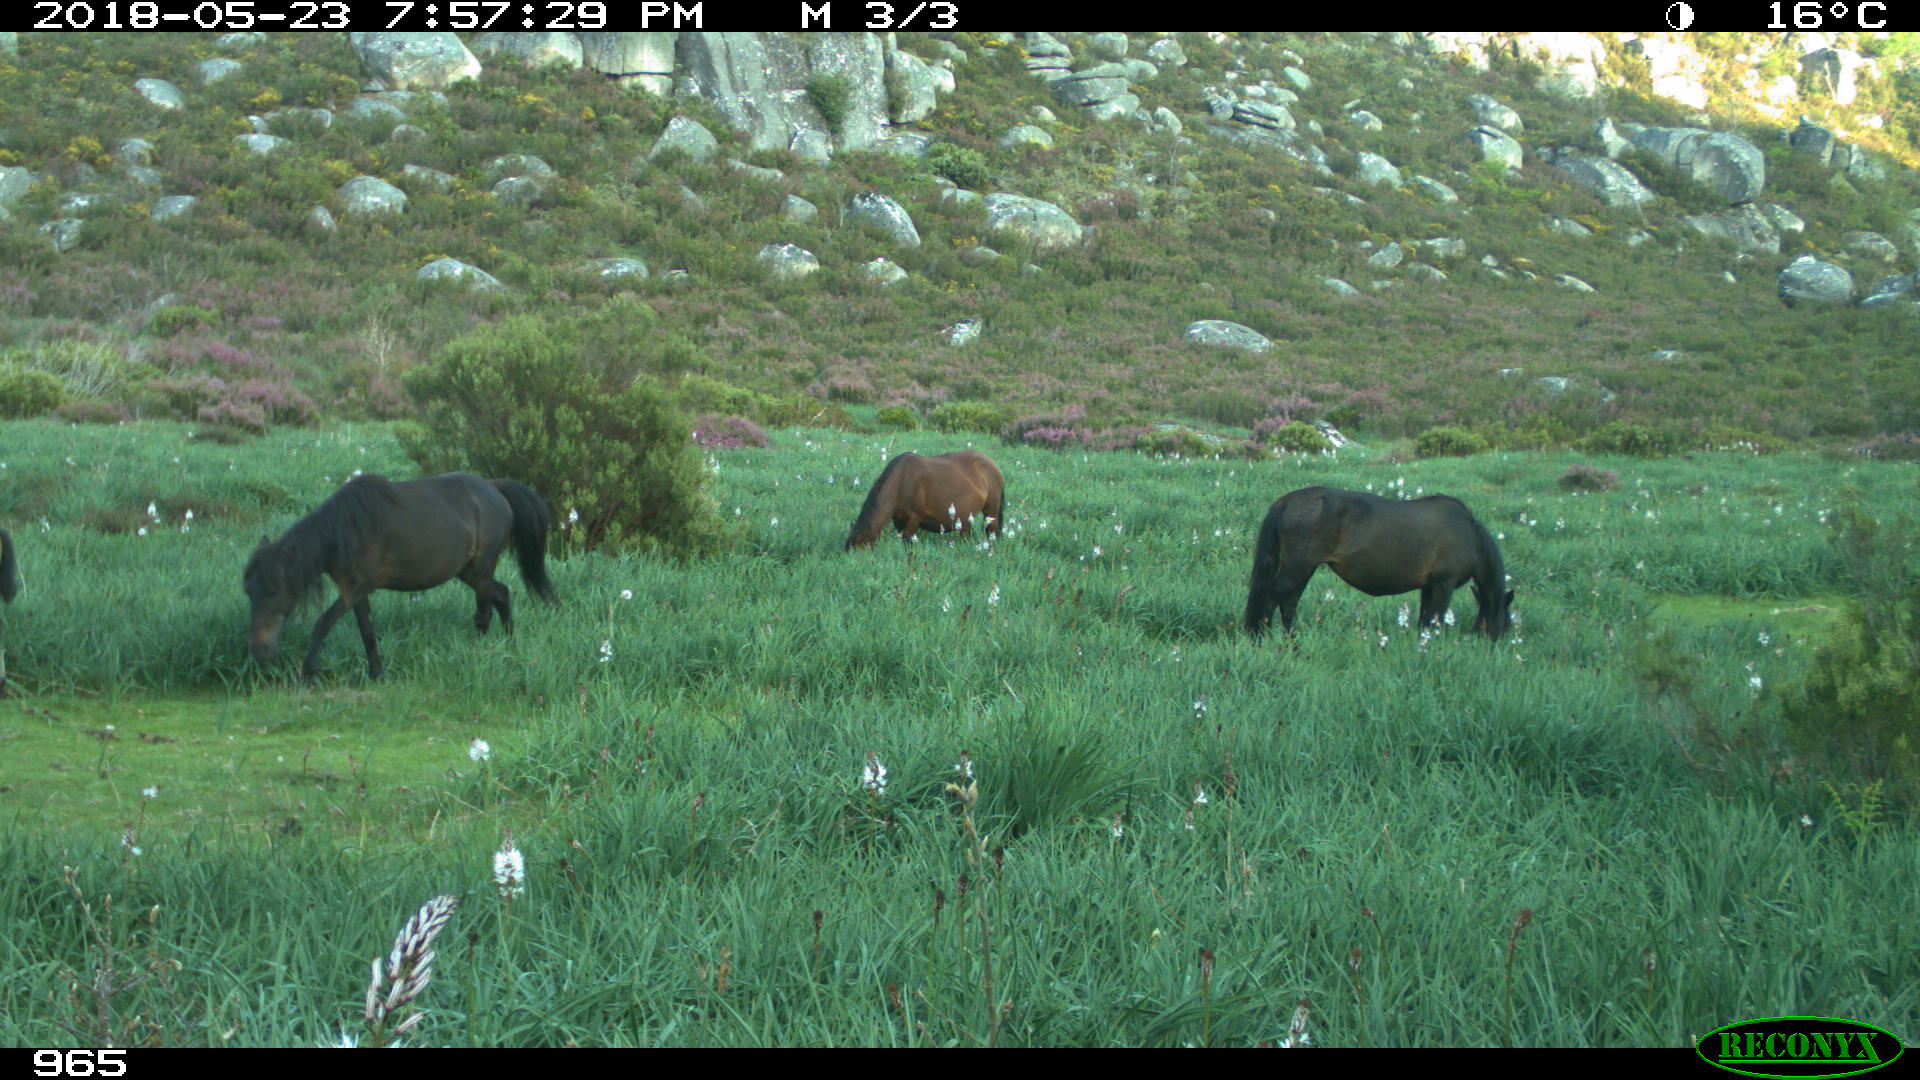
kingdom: Animalia
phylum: Chordata
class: Mammalia
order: Perissodactyla
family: Equidae
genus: Equus
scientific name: Equus caballus
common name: Horse
